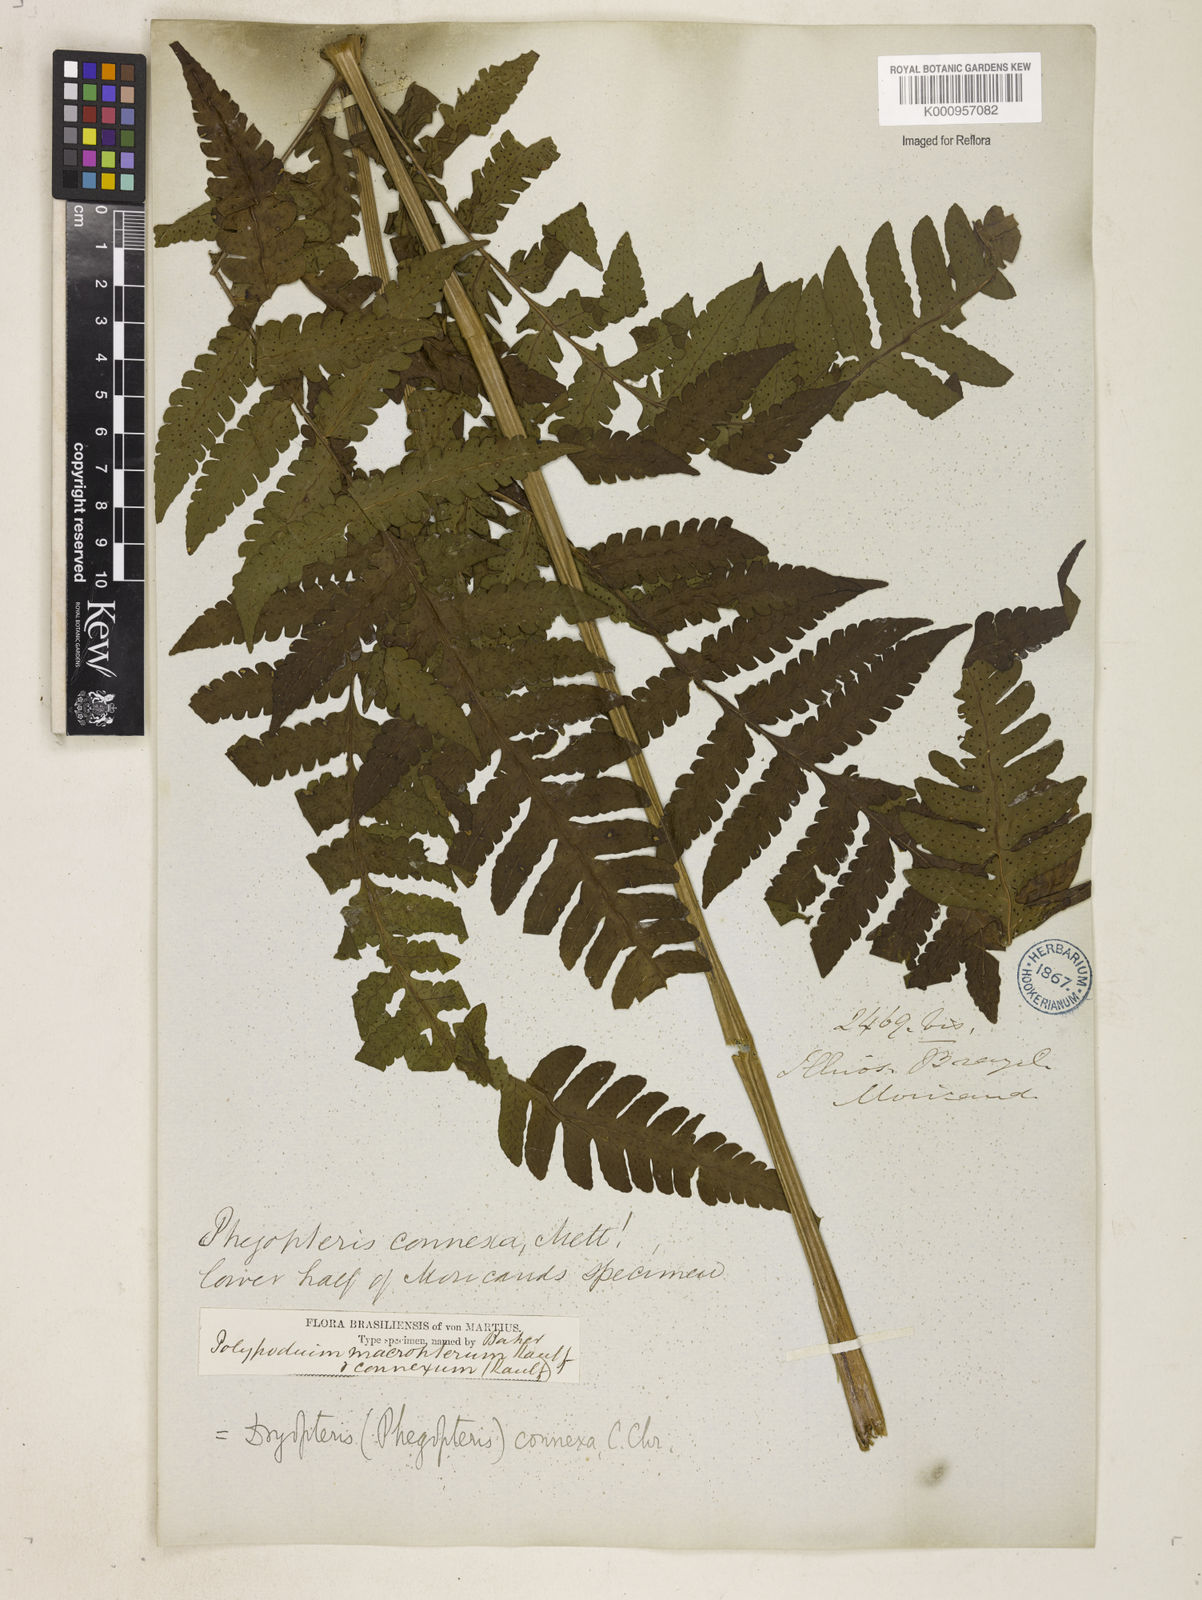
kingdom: Plantae
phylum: Tracheophyta
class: Polypodiopsida
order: Polypodiales
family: Dryopteridaceae
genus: Megalastrum
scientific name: Megalastrum connexum
